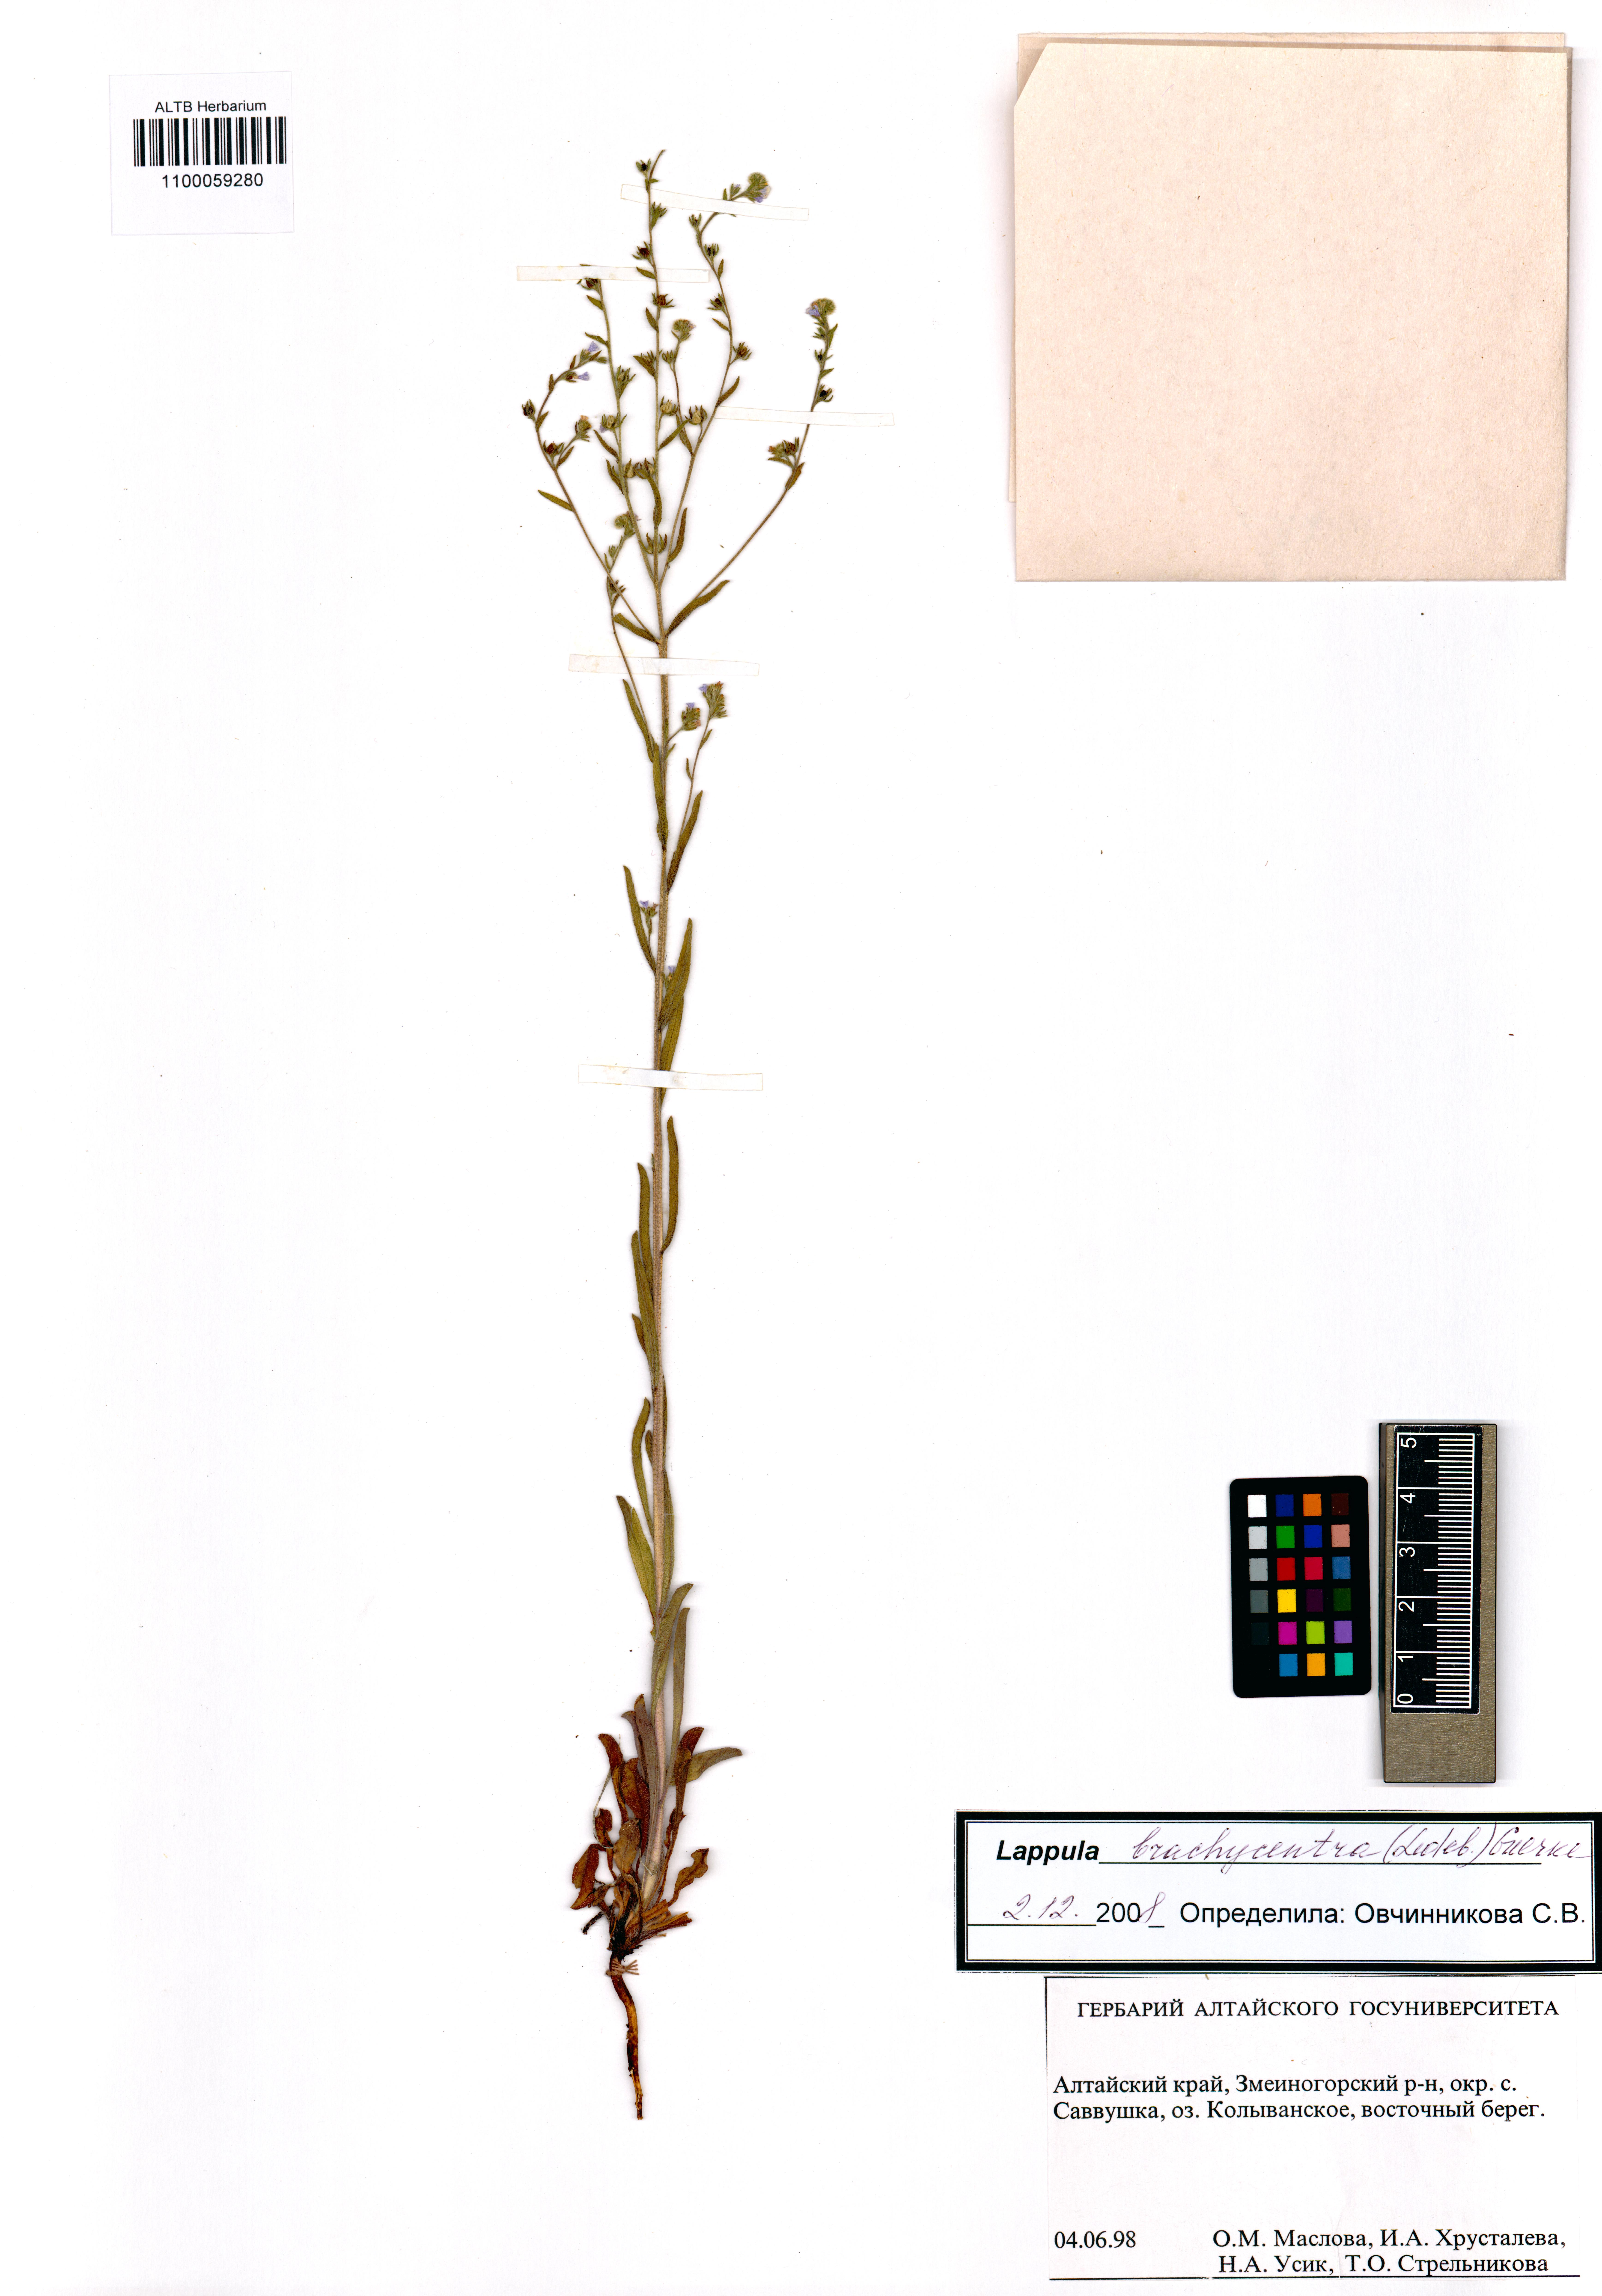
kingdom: Plantae
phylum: Tracheophyta
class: Magnoliopsida
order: Boraginales
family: Boraginaceae
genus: Lappula
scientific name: Lappula brachycentra
